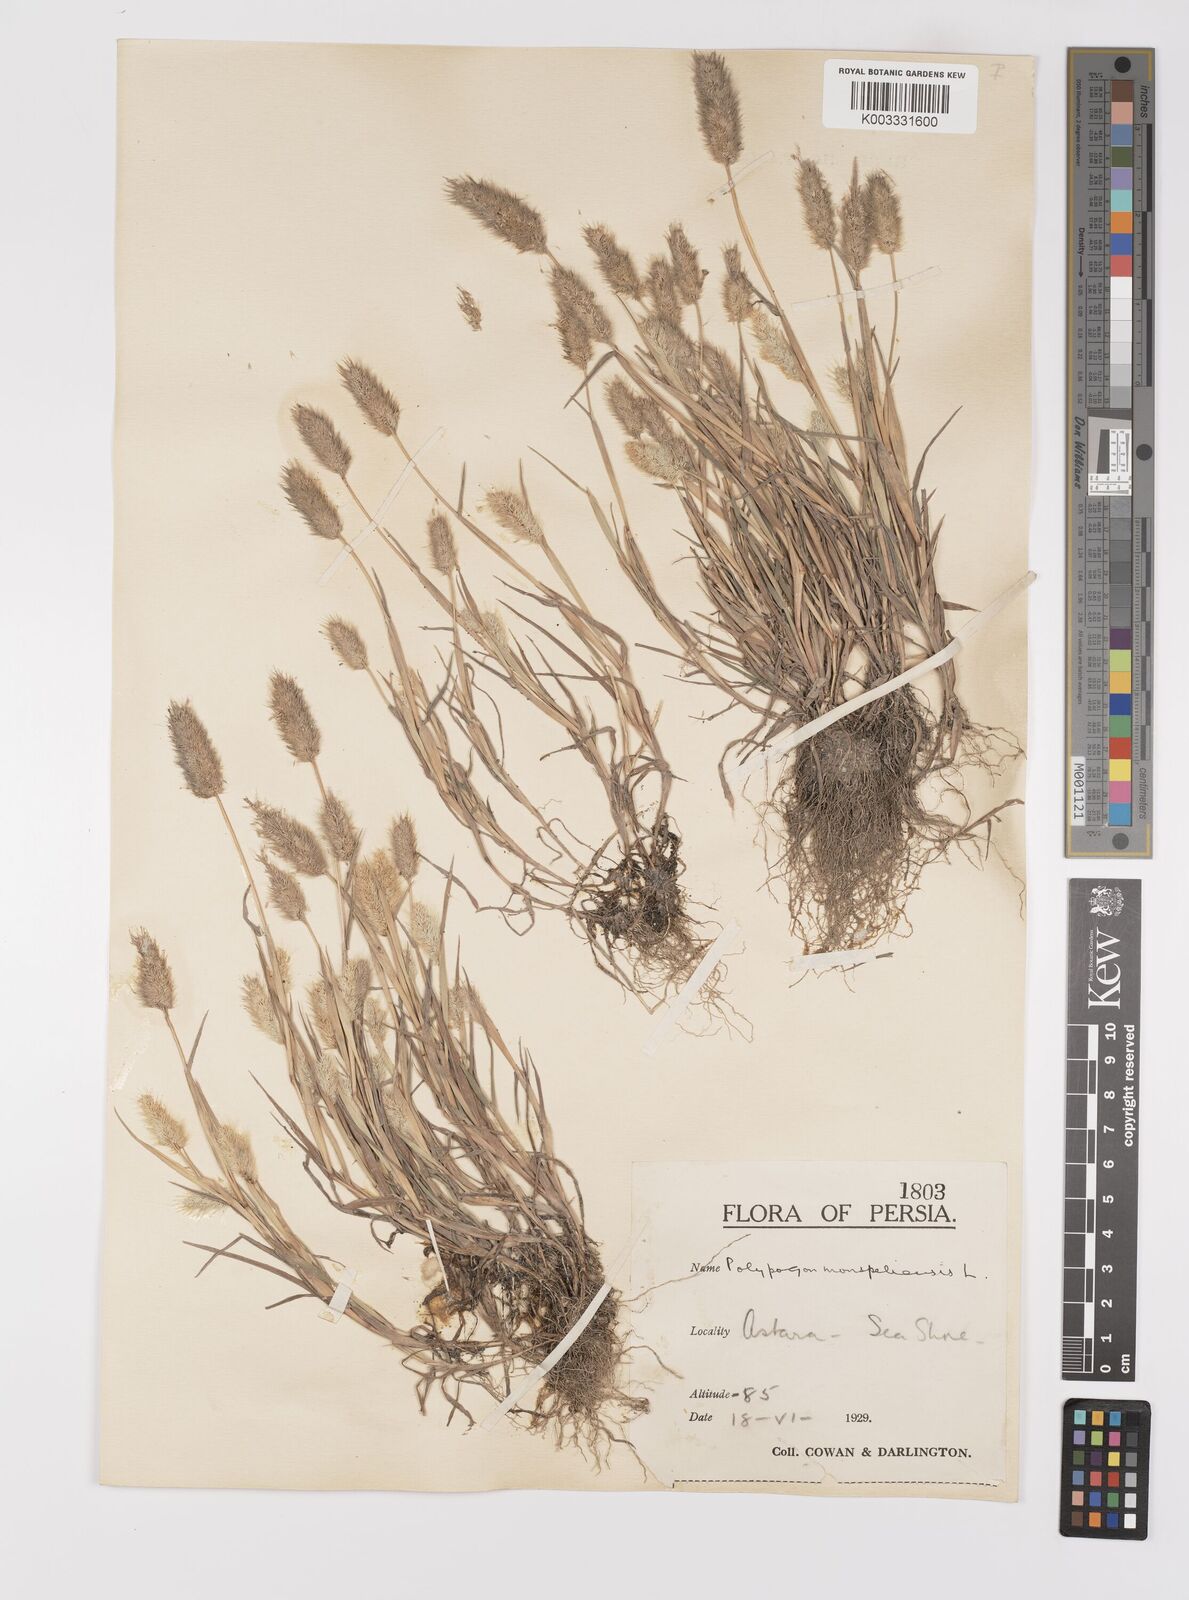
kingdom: Plantae
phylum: Tracheophyta
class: Liliopsida
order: Poales
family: Poaceae
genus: Polypogon
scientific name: Polypogon monspeliensis
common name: Annual rabbitsfoot grass
